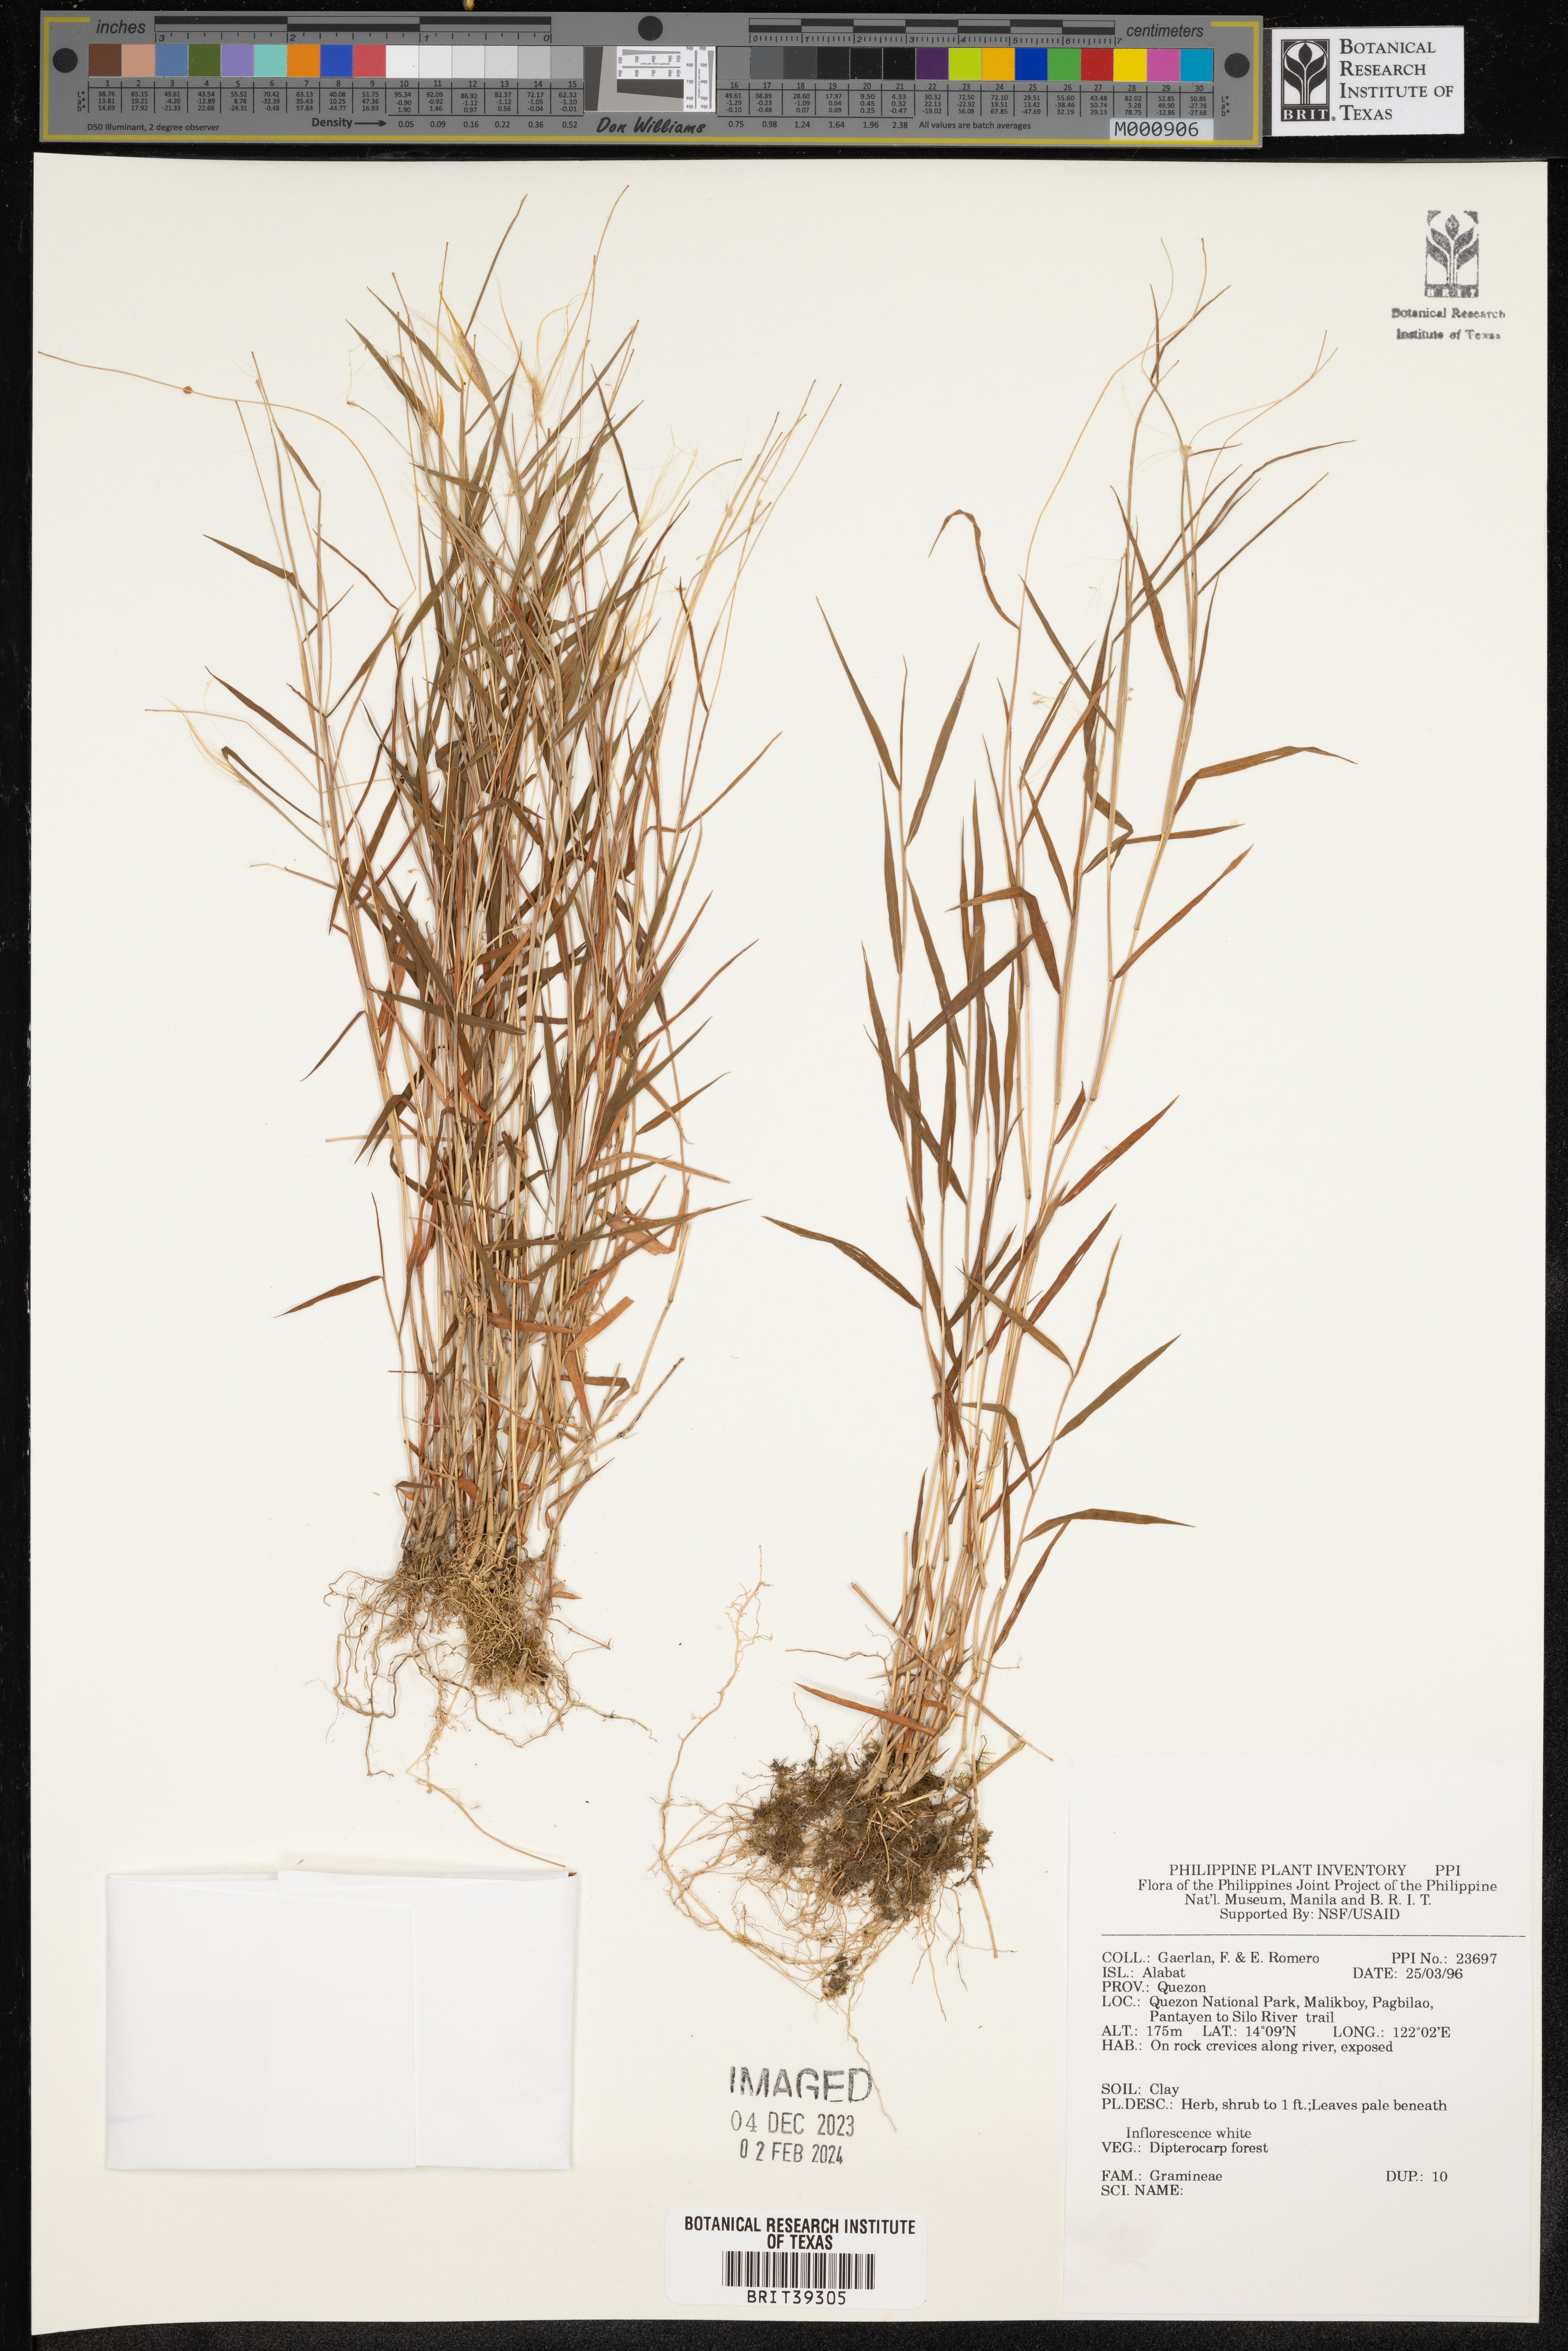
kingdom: Plantae
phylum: Tracheophyta
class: Liliopsida
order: Poales
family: Poaceae
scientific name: Poaceae
